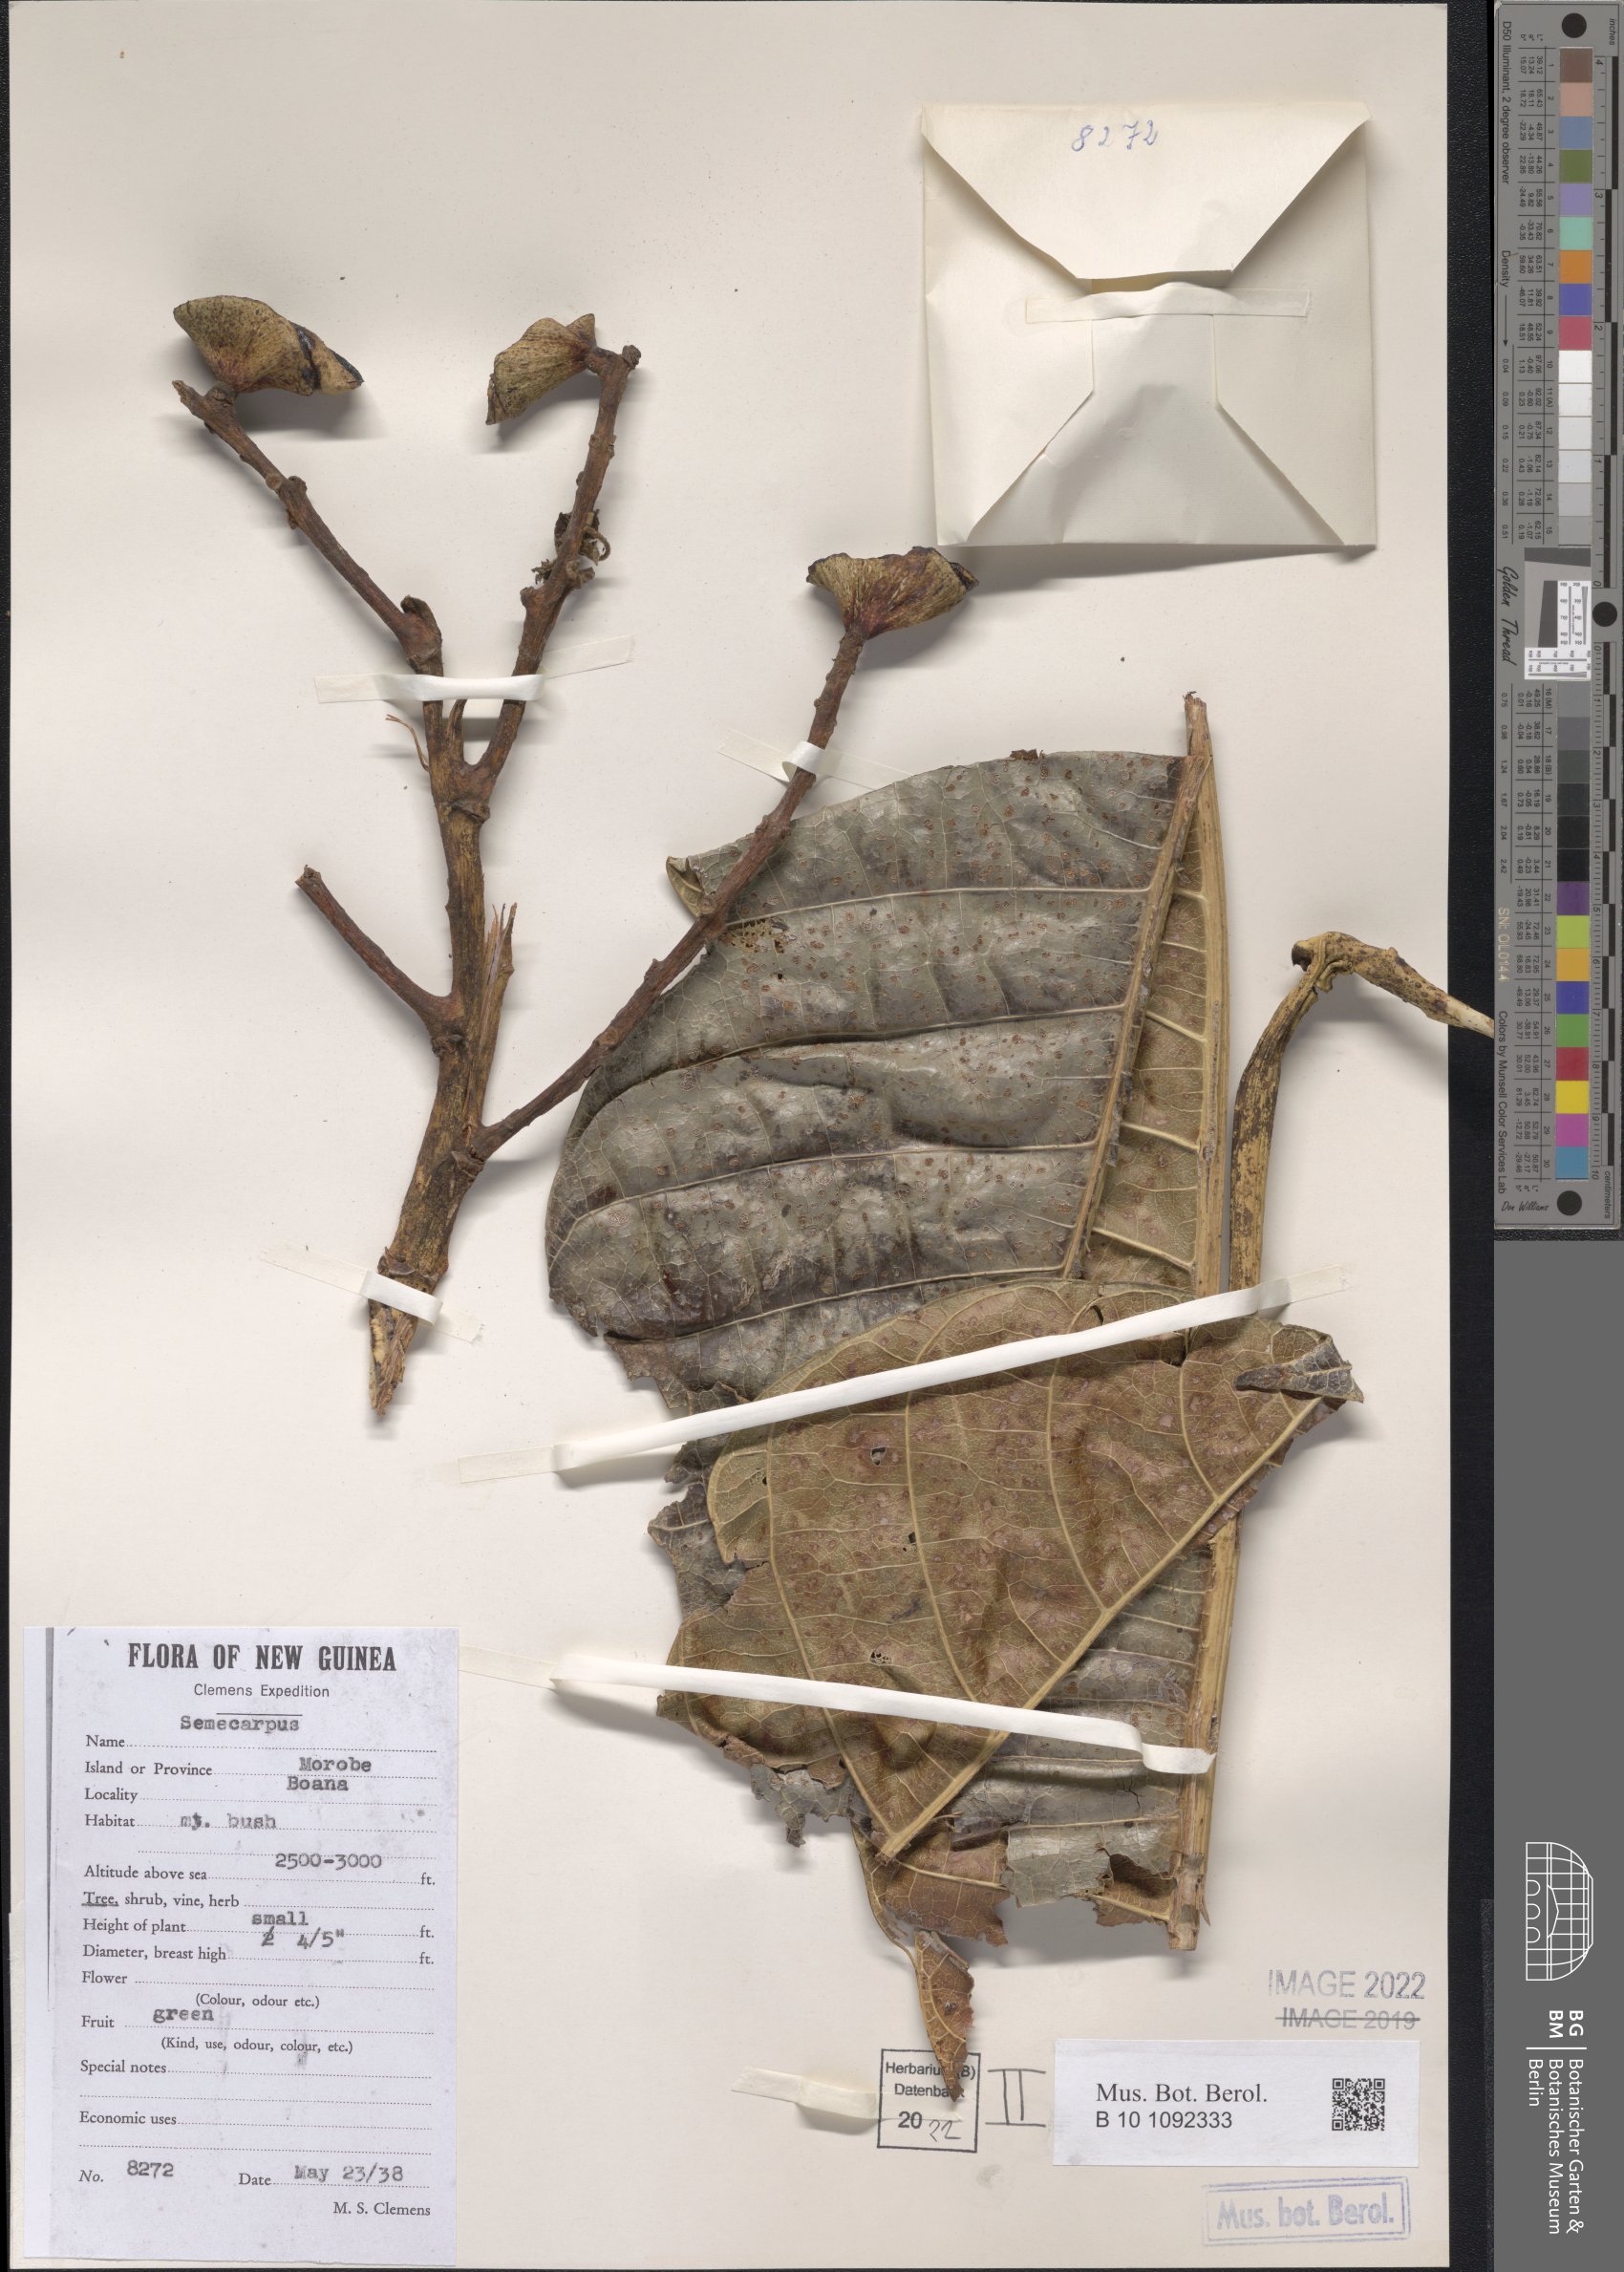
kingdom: Plantae
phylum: Tracheophyta
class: Magnoliopsida
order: Sapindales
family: Anacardiaceae
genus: Semecarpus
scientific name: Semecarpus
